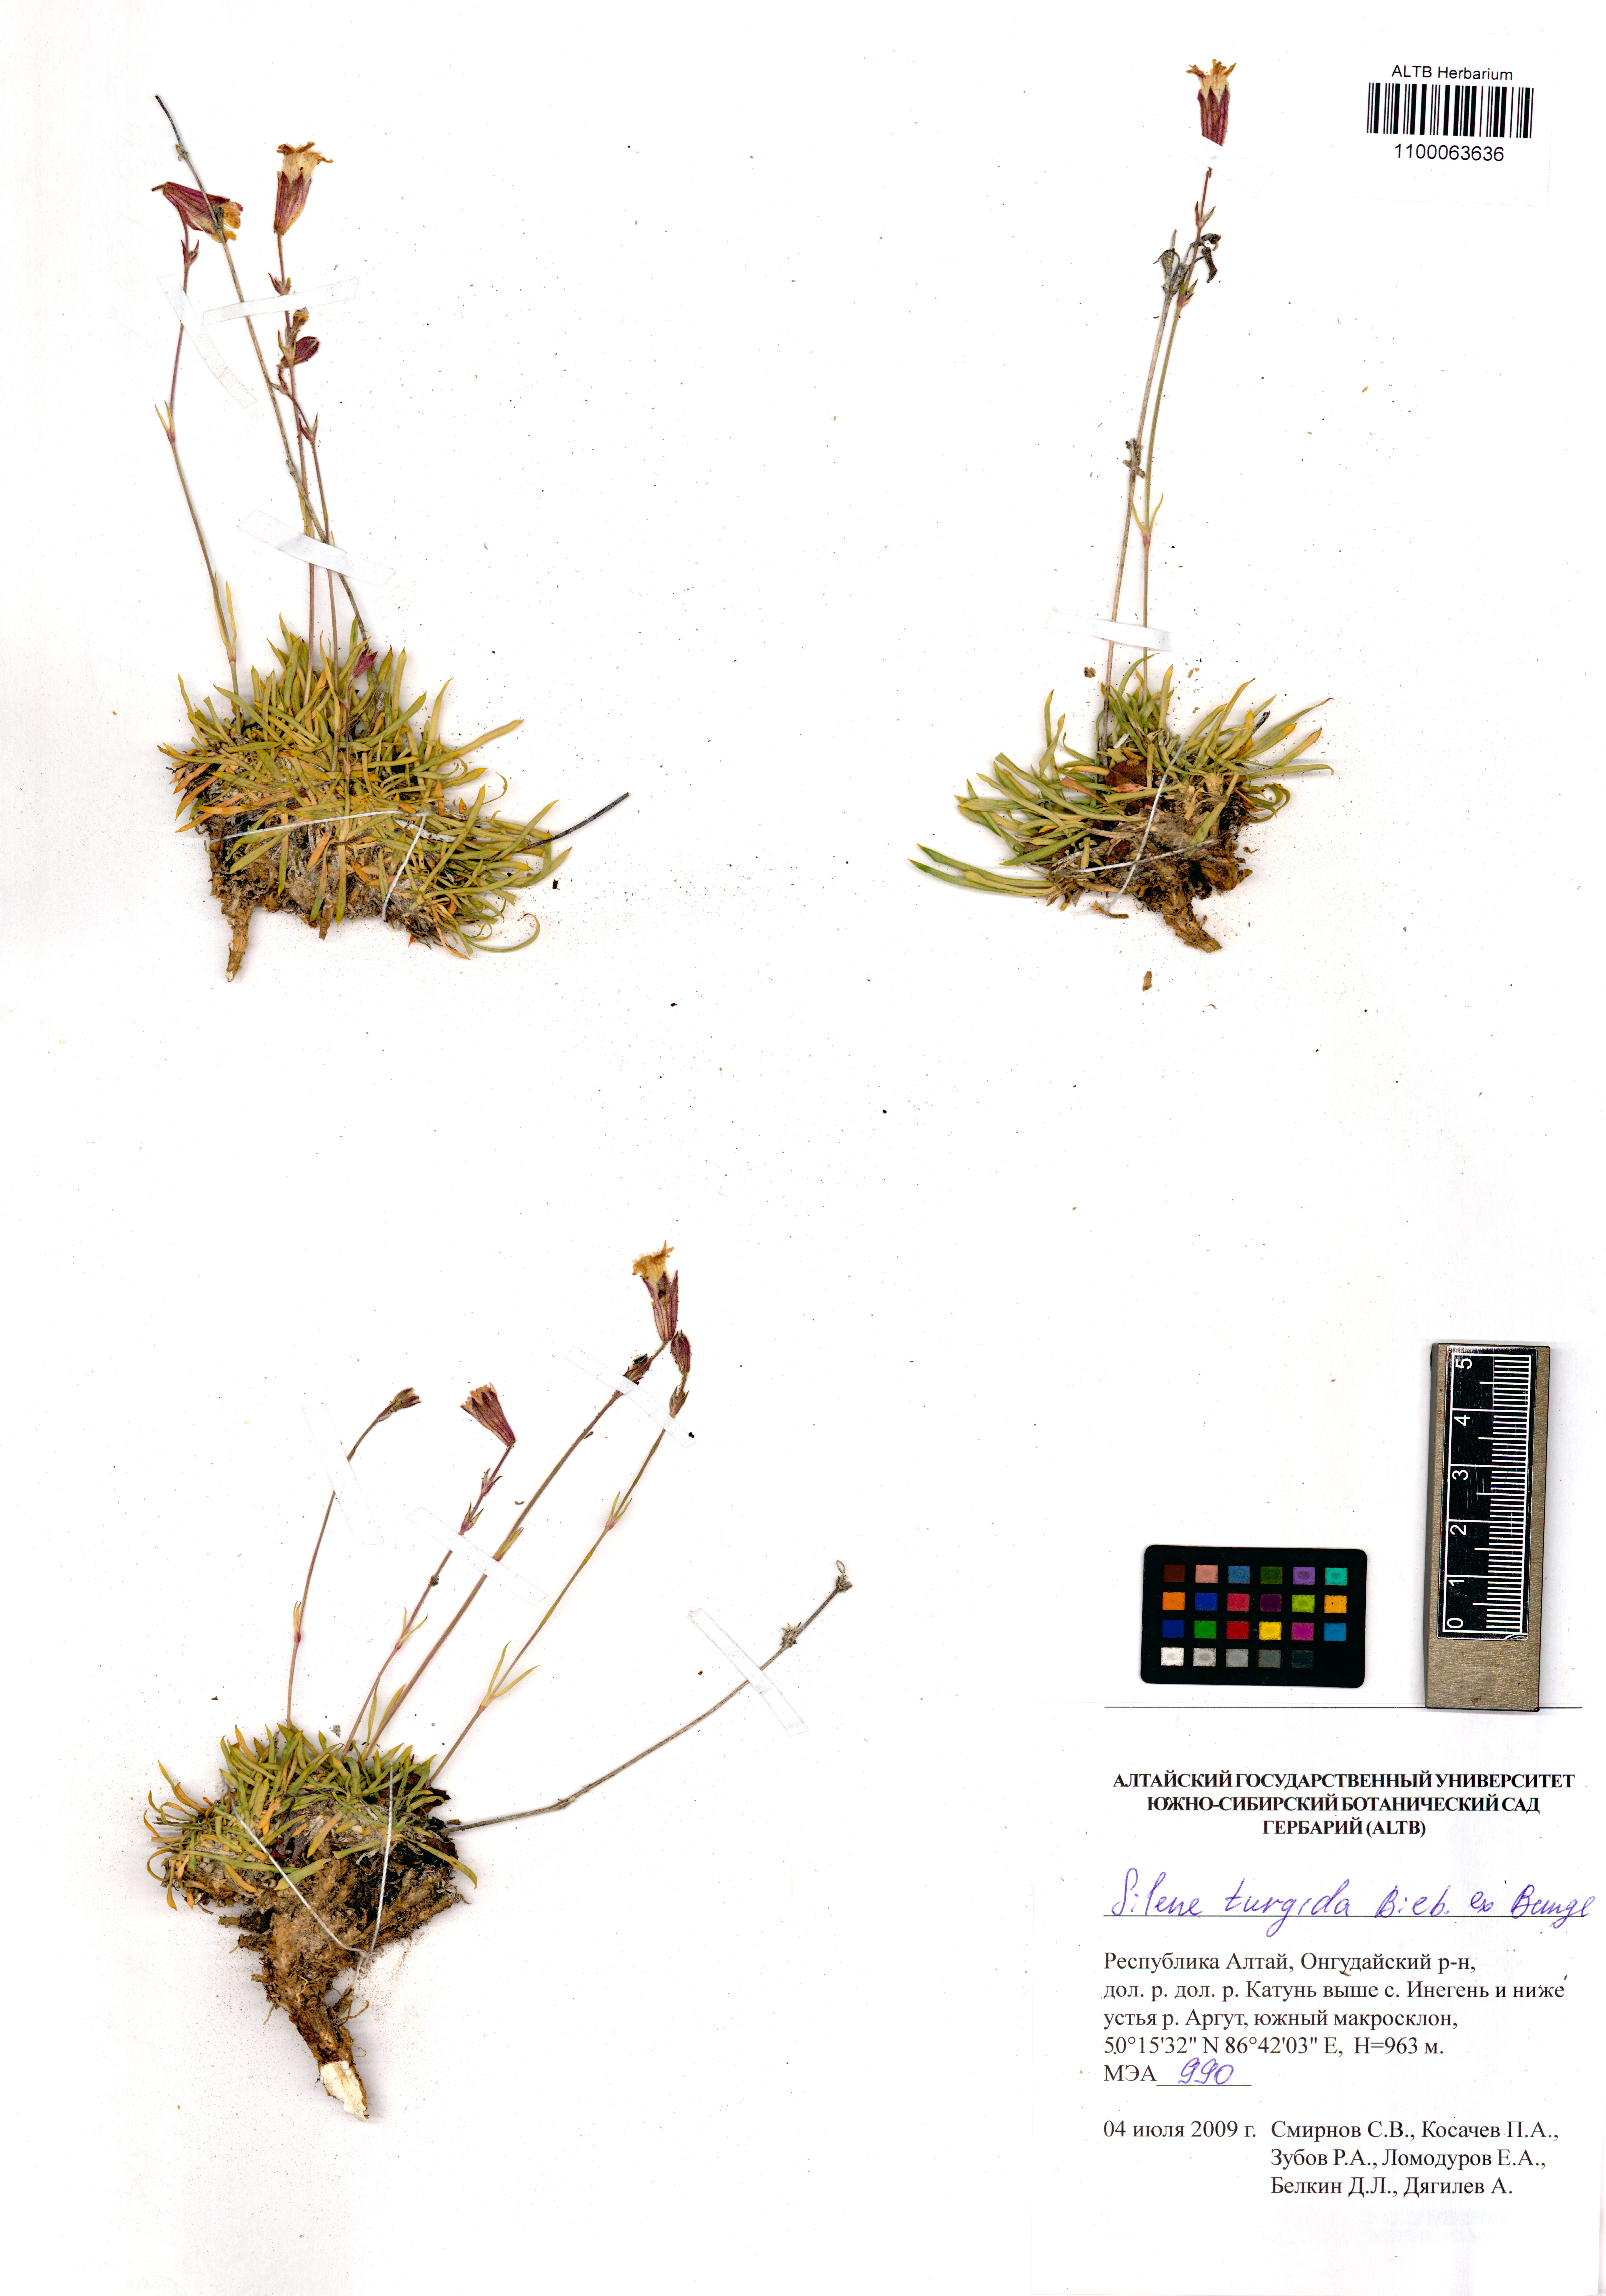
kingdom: Plantae
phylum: Tracheophyta
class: Magnoliopsida
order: Caryophyllales
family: Caryophyllaceae
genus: Silene
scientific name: Silene turgida
